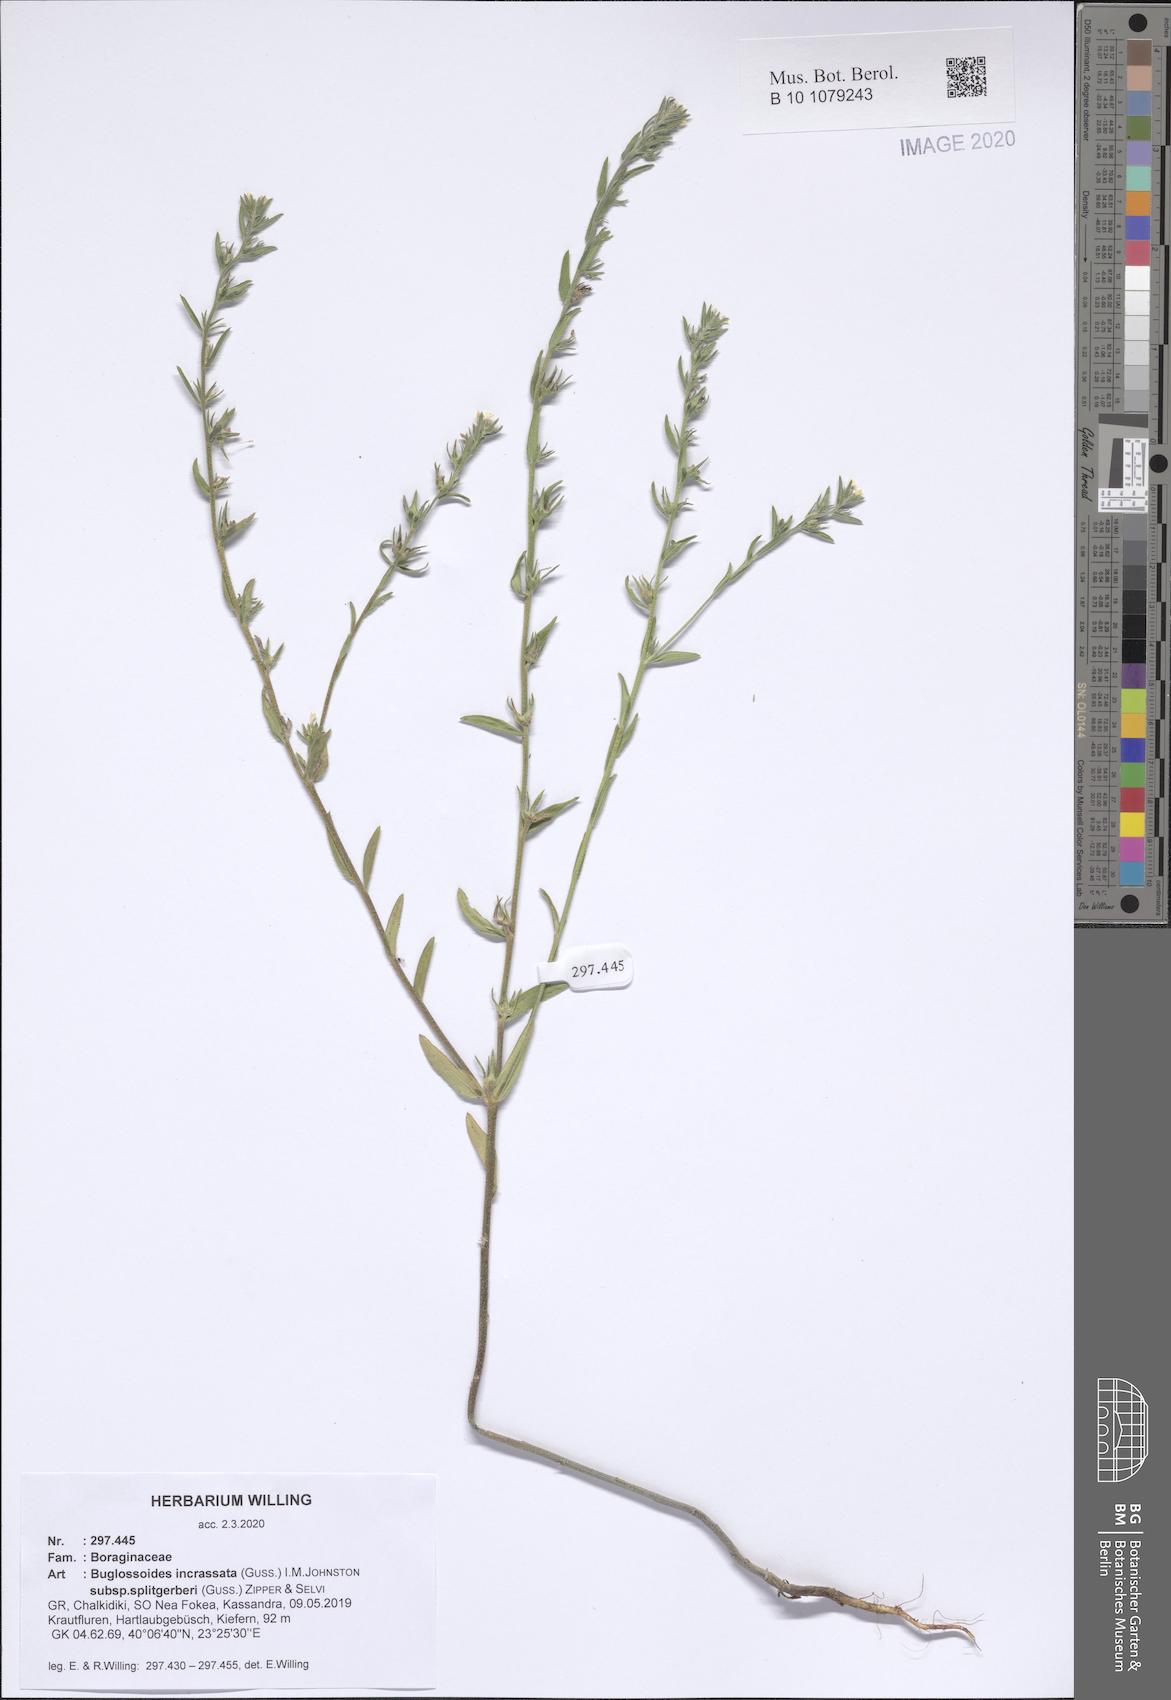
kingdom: Plantae
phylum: Tracheophyta
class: Magnoliopsida
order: Boraginales
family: Boraginaceae
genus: Buglossoides
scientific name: Buglossoides incrassata
